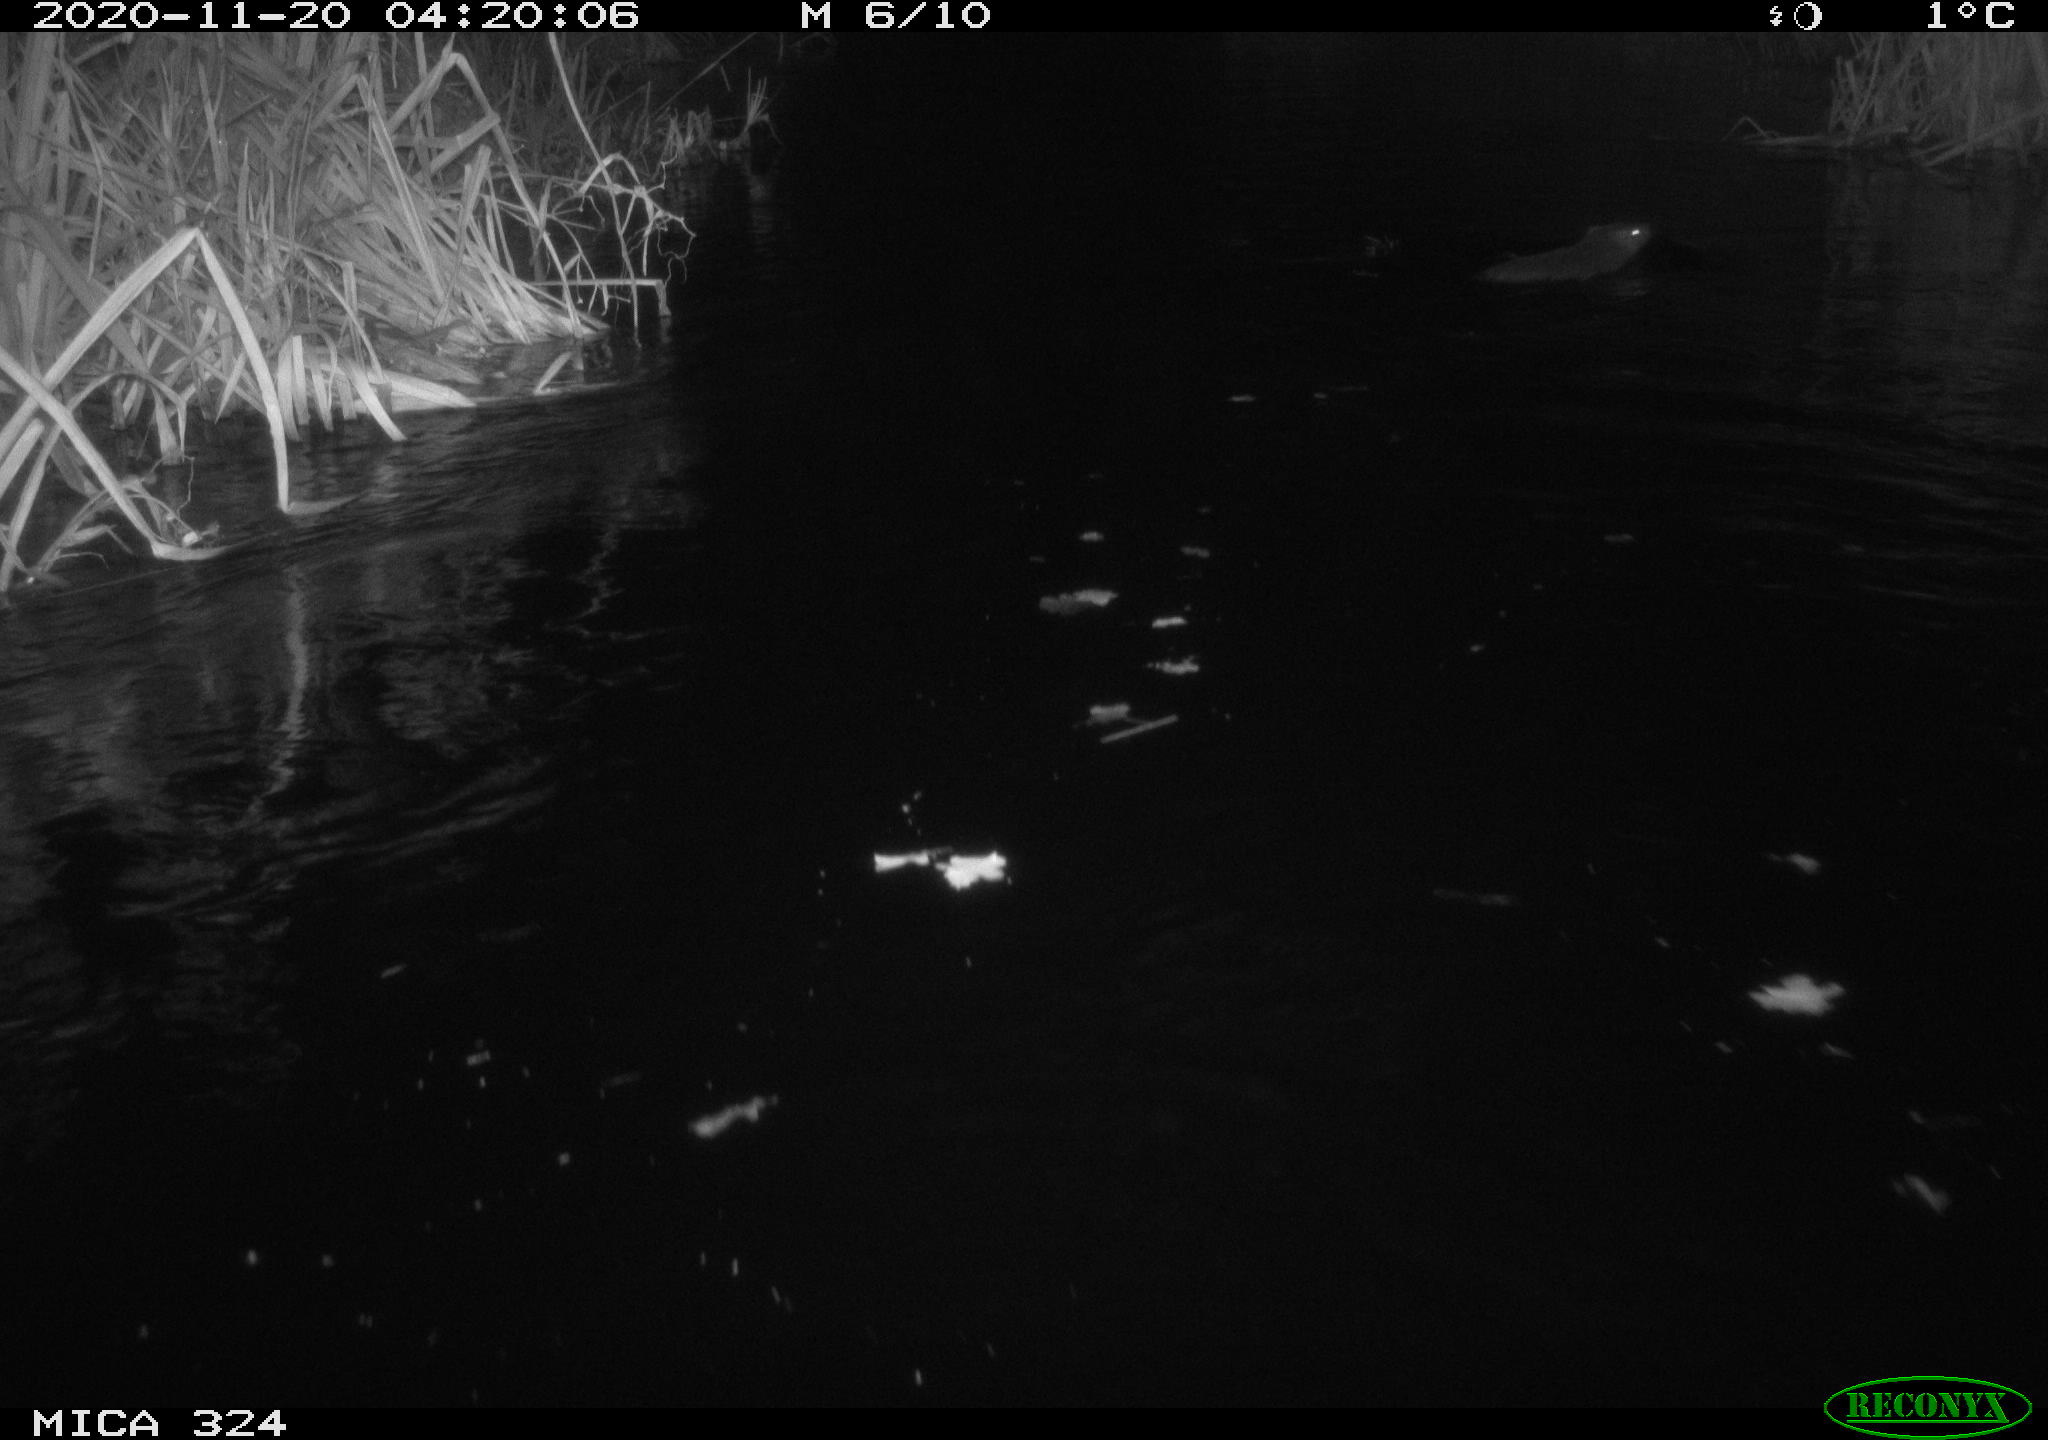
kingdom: Animalia
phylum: Chordata
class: Mammalia
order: Rodentia
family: Myocastoridae
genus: Myocastor
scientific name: Myocastor coypus
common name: Coypu
